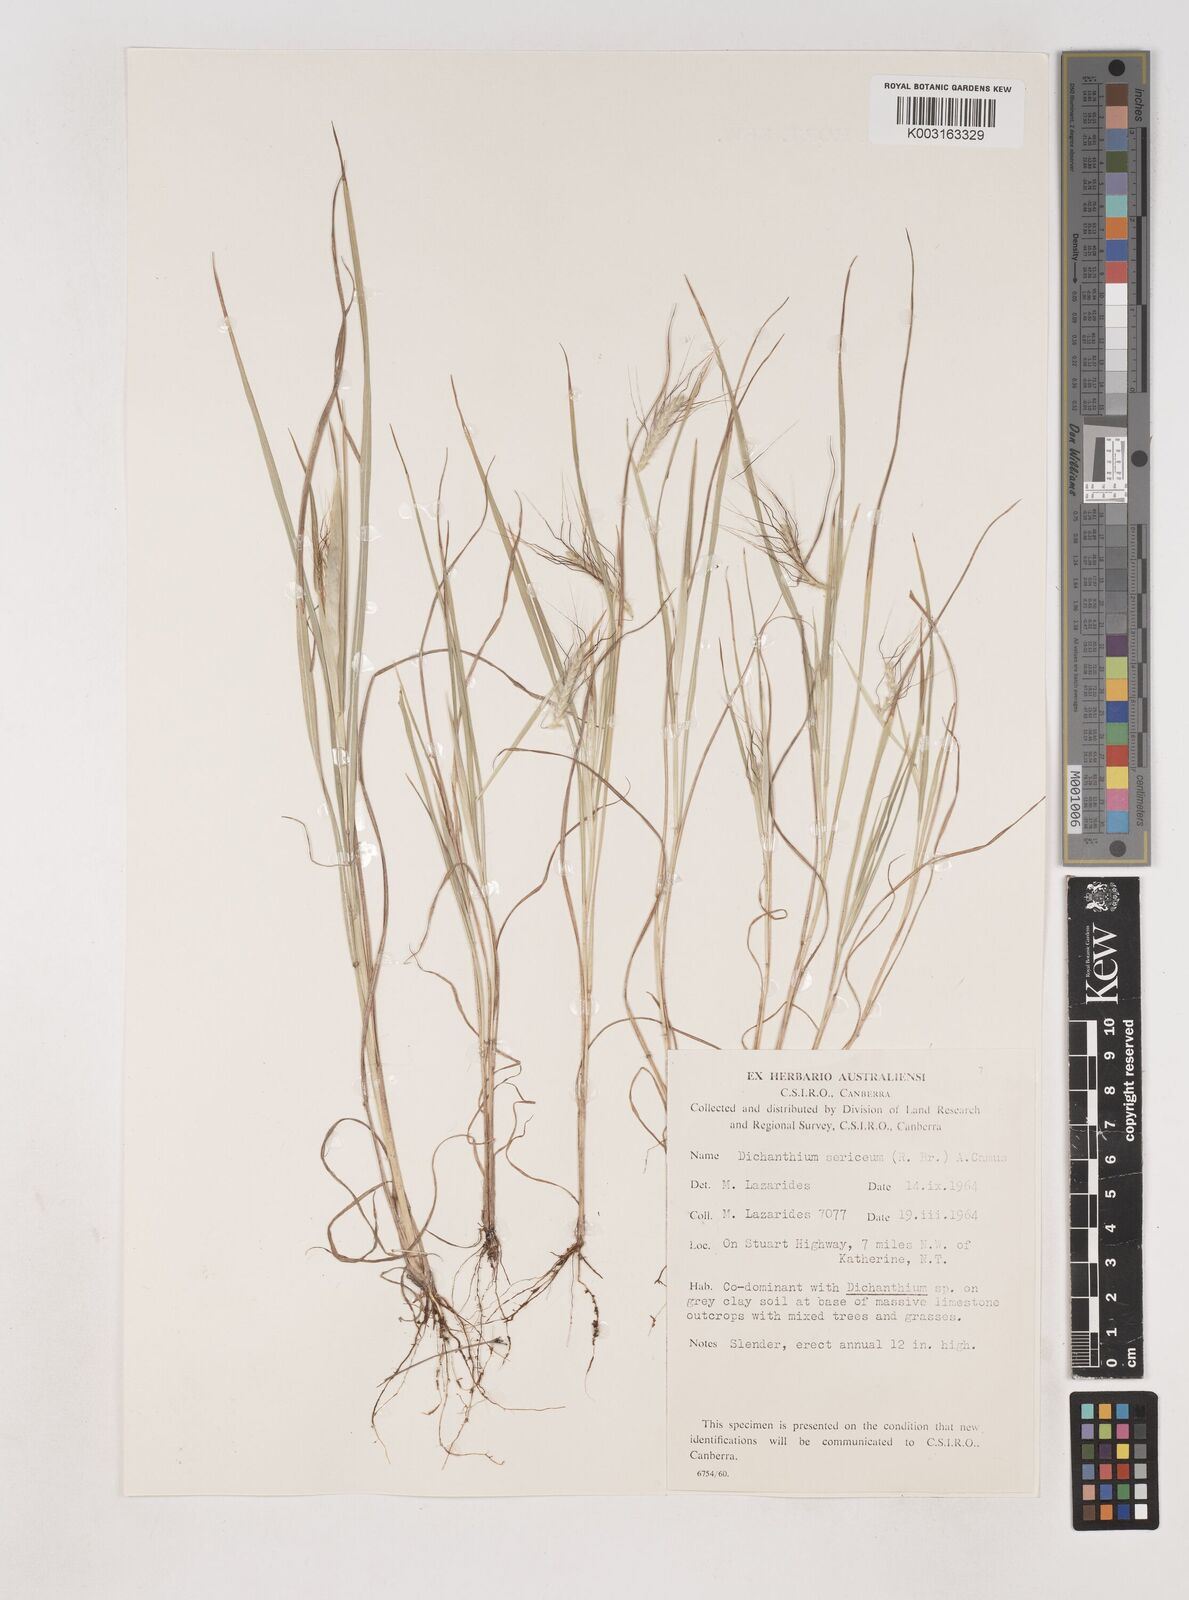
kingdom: Plantae
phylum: Tracheophyta
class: Liliopsida
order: Poales
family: Poaceae
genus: Dichanthium
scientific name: Dichanthium sericeum
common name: Silky bluestem
